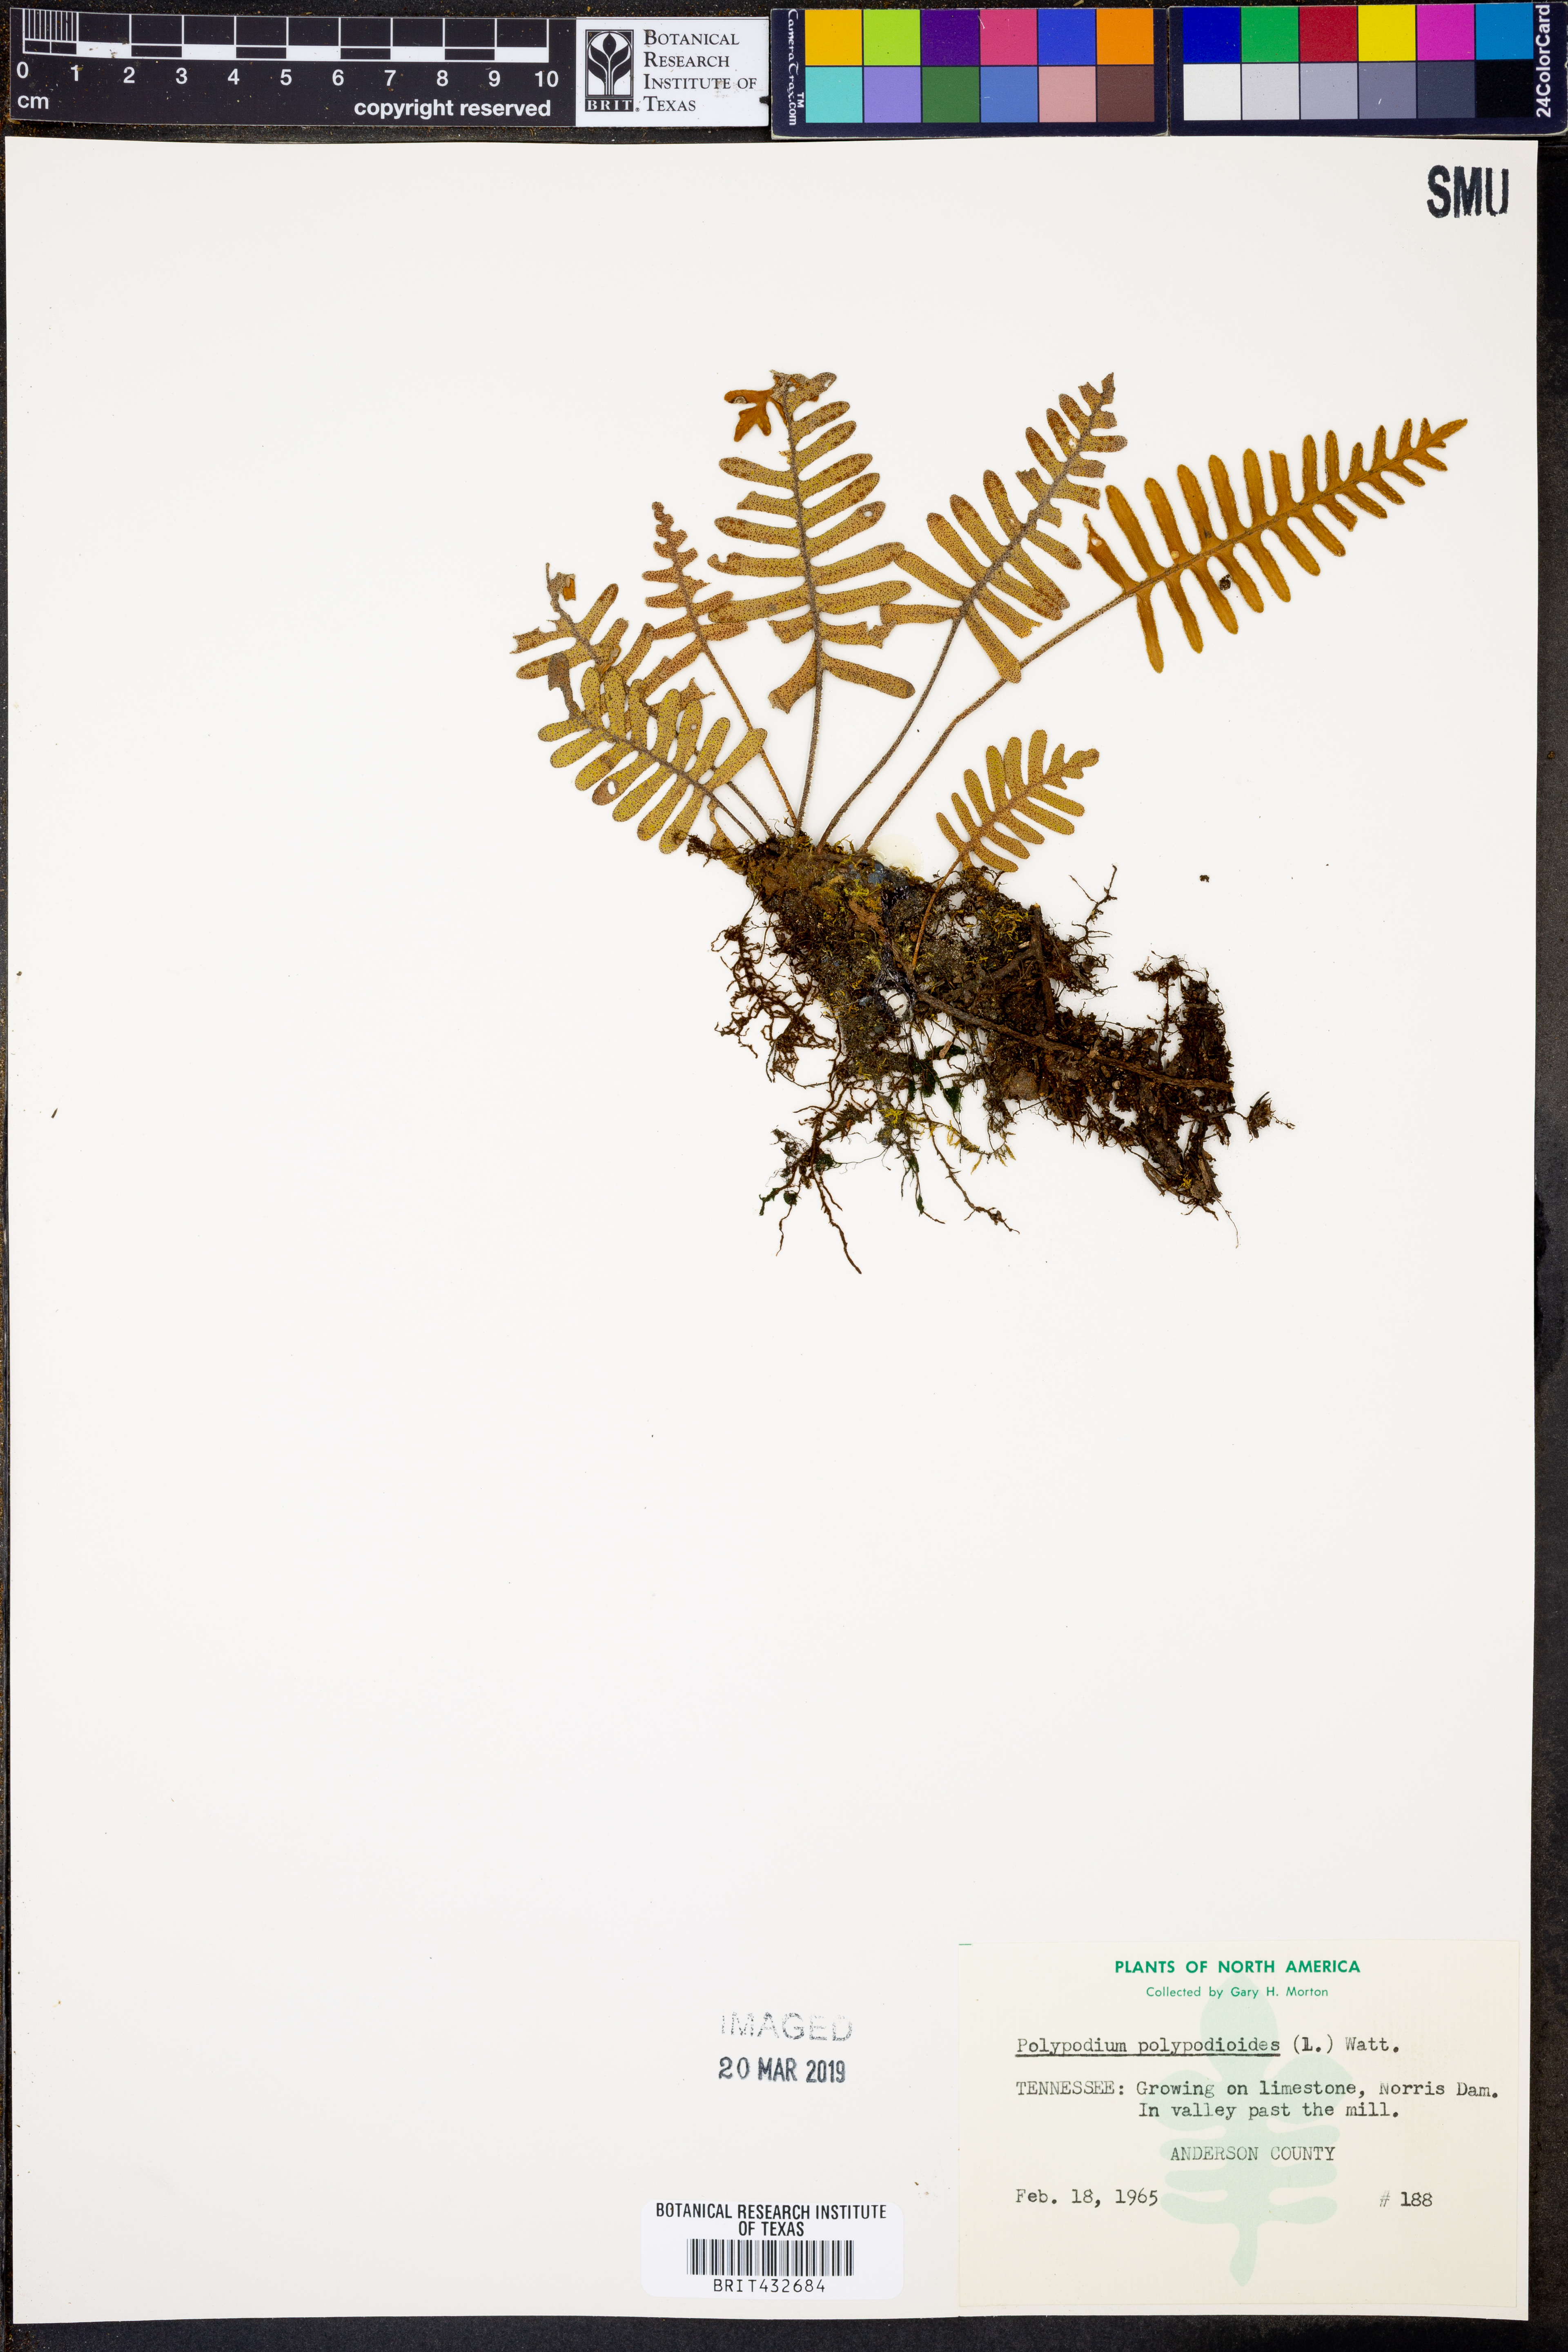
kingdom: Plantae
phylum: Tracheophyta
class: Polypodiopsida
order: Polypodiales
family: Polypodiaceae
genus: Pleopeltis
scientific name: Pleopeltis polypodioides
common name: Resurrection fern
